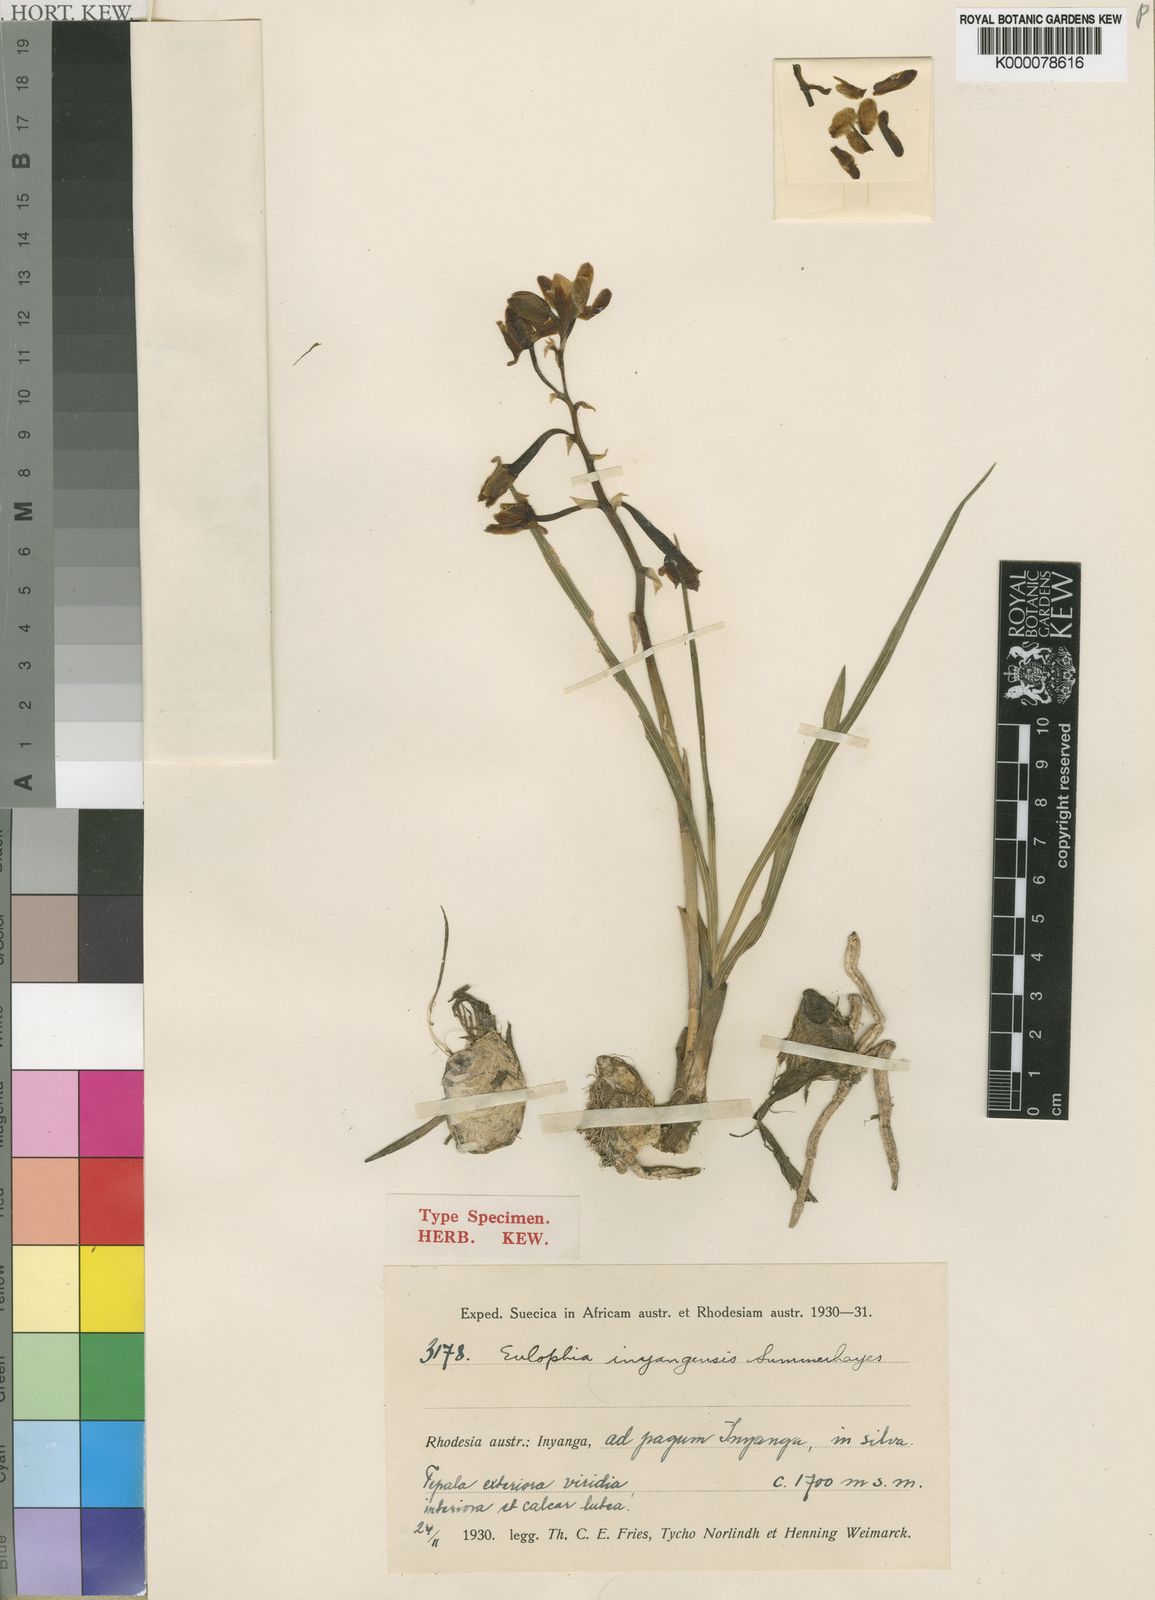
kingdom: Plantae
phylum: Tracheophyta
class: Liliopsida
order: Asparagales
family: Orchidaceae
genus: Eulophia
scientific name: Eulophia monticola
